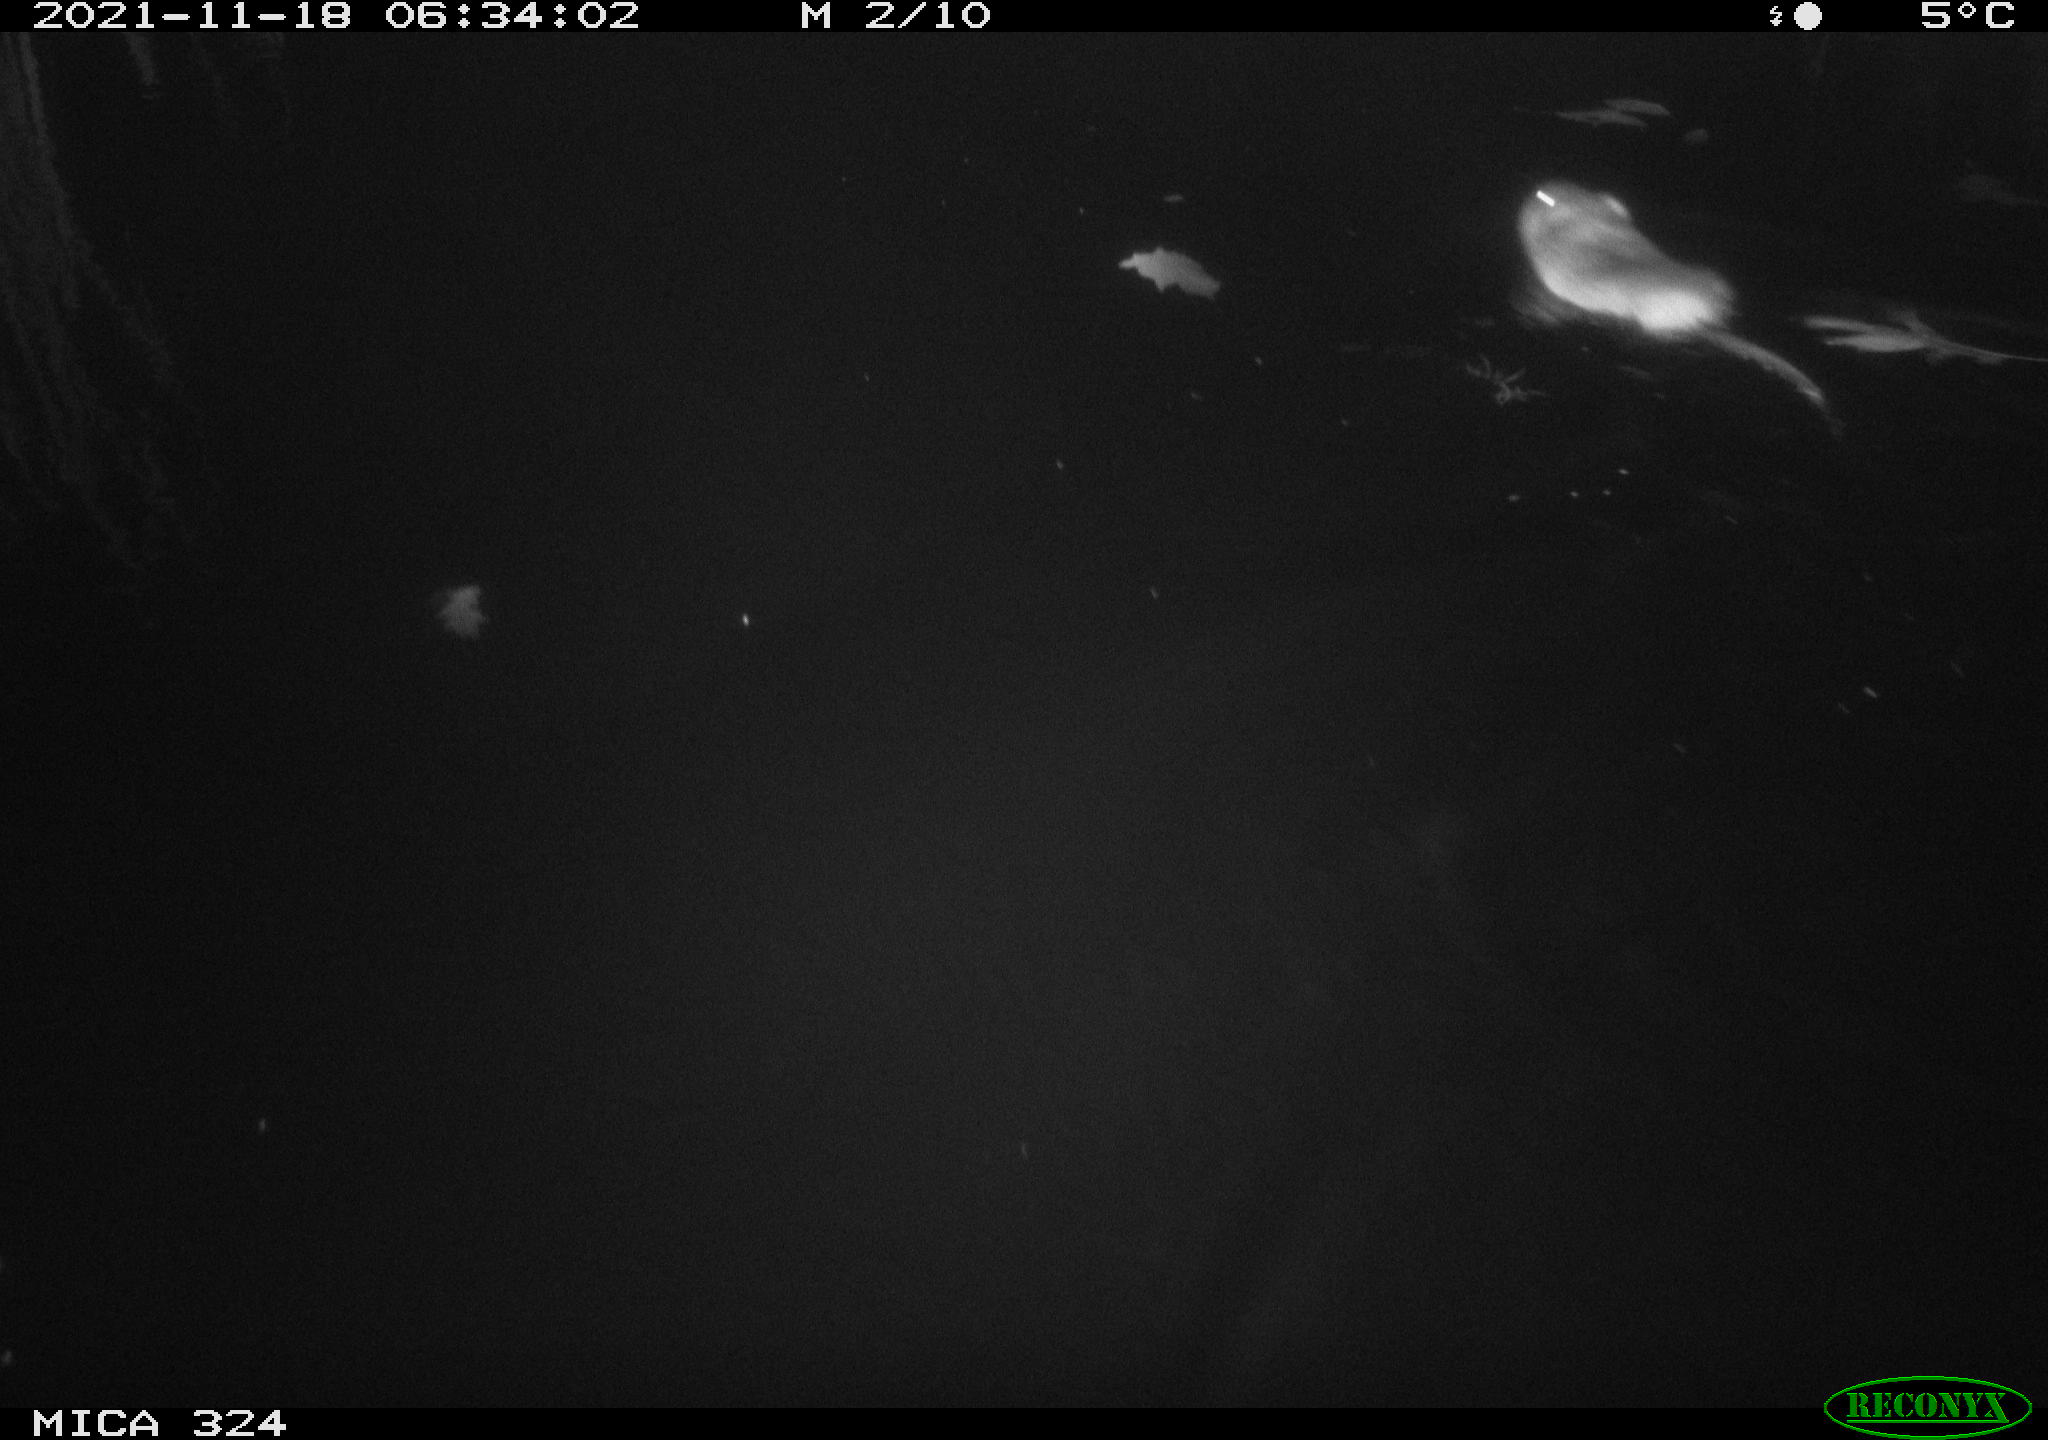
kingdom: Animalia
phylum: Chordata
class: Mammalia
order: Rodentia
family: Cricetidae
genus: Ondatra
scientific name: Ondatra zibethicus
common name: Muskrat
